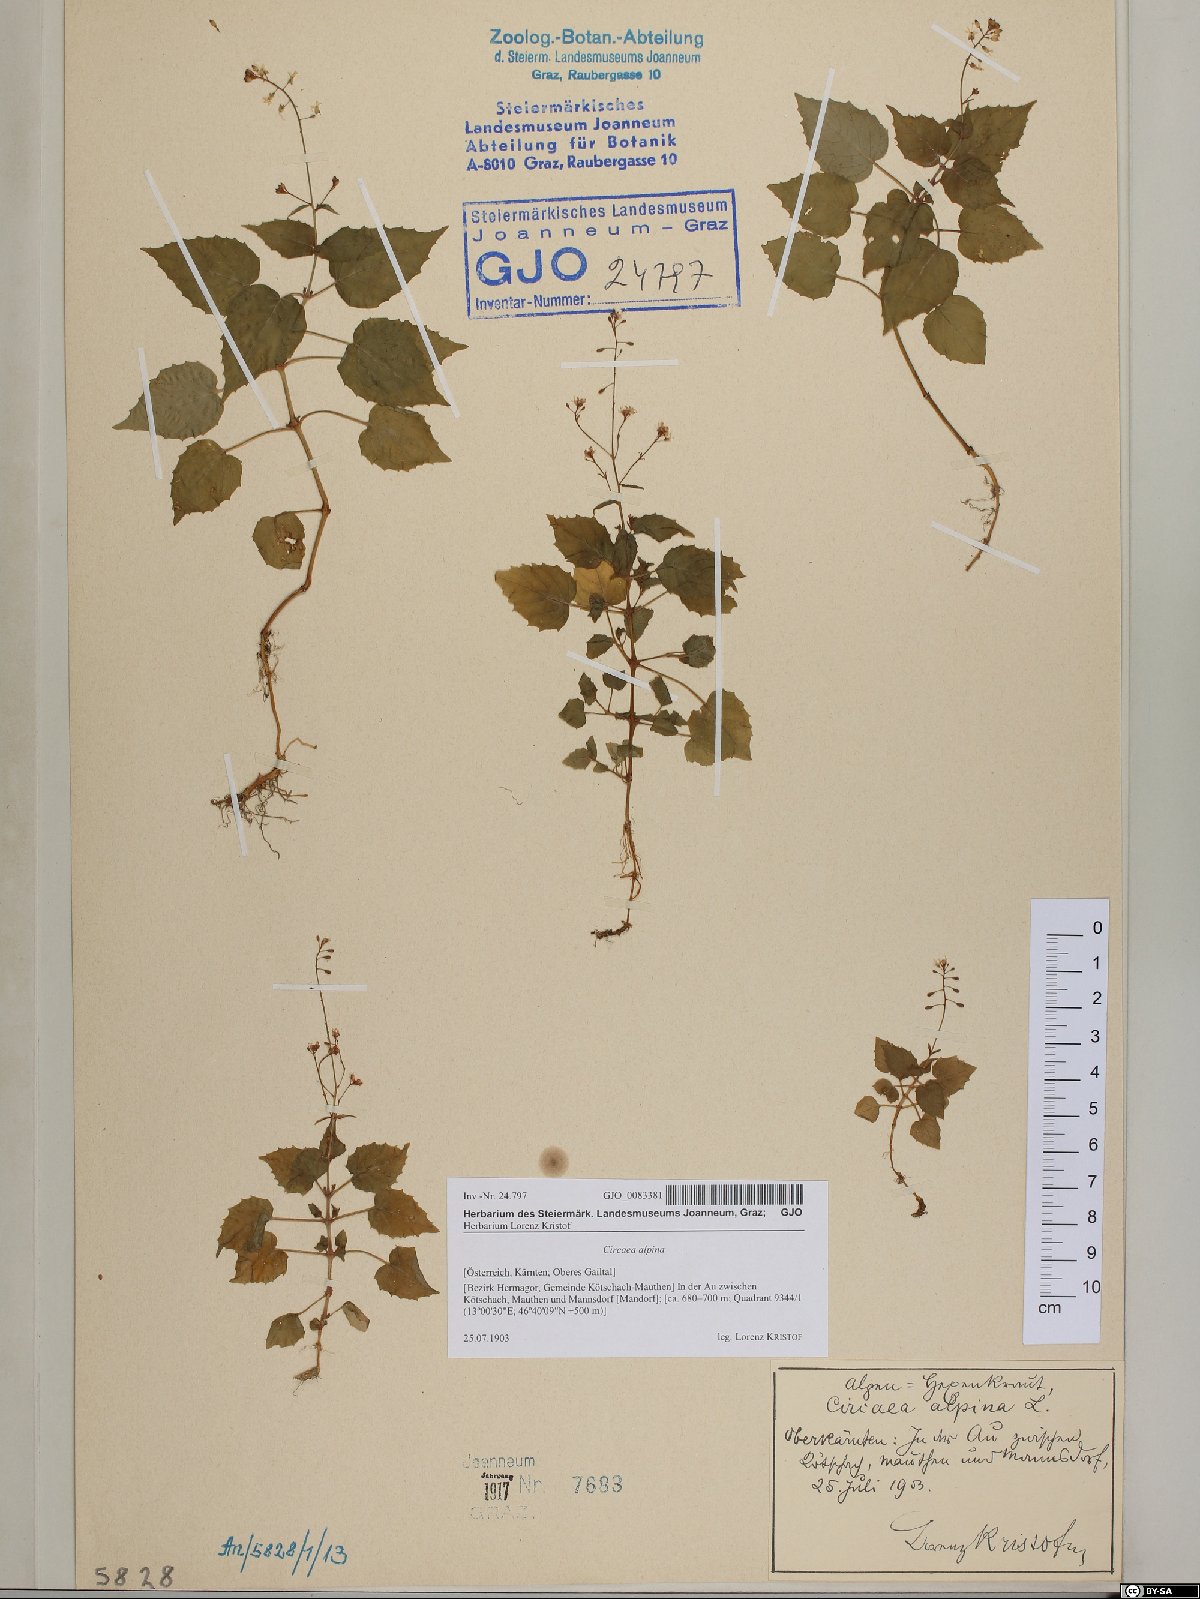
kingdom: Plantae
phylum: Tracheophyta
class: Magnoliopsida
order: Myrtales
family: Onagraceae
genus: Circaea
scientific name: Circaea alpina
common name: Alpine enchanter's-nightshade
